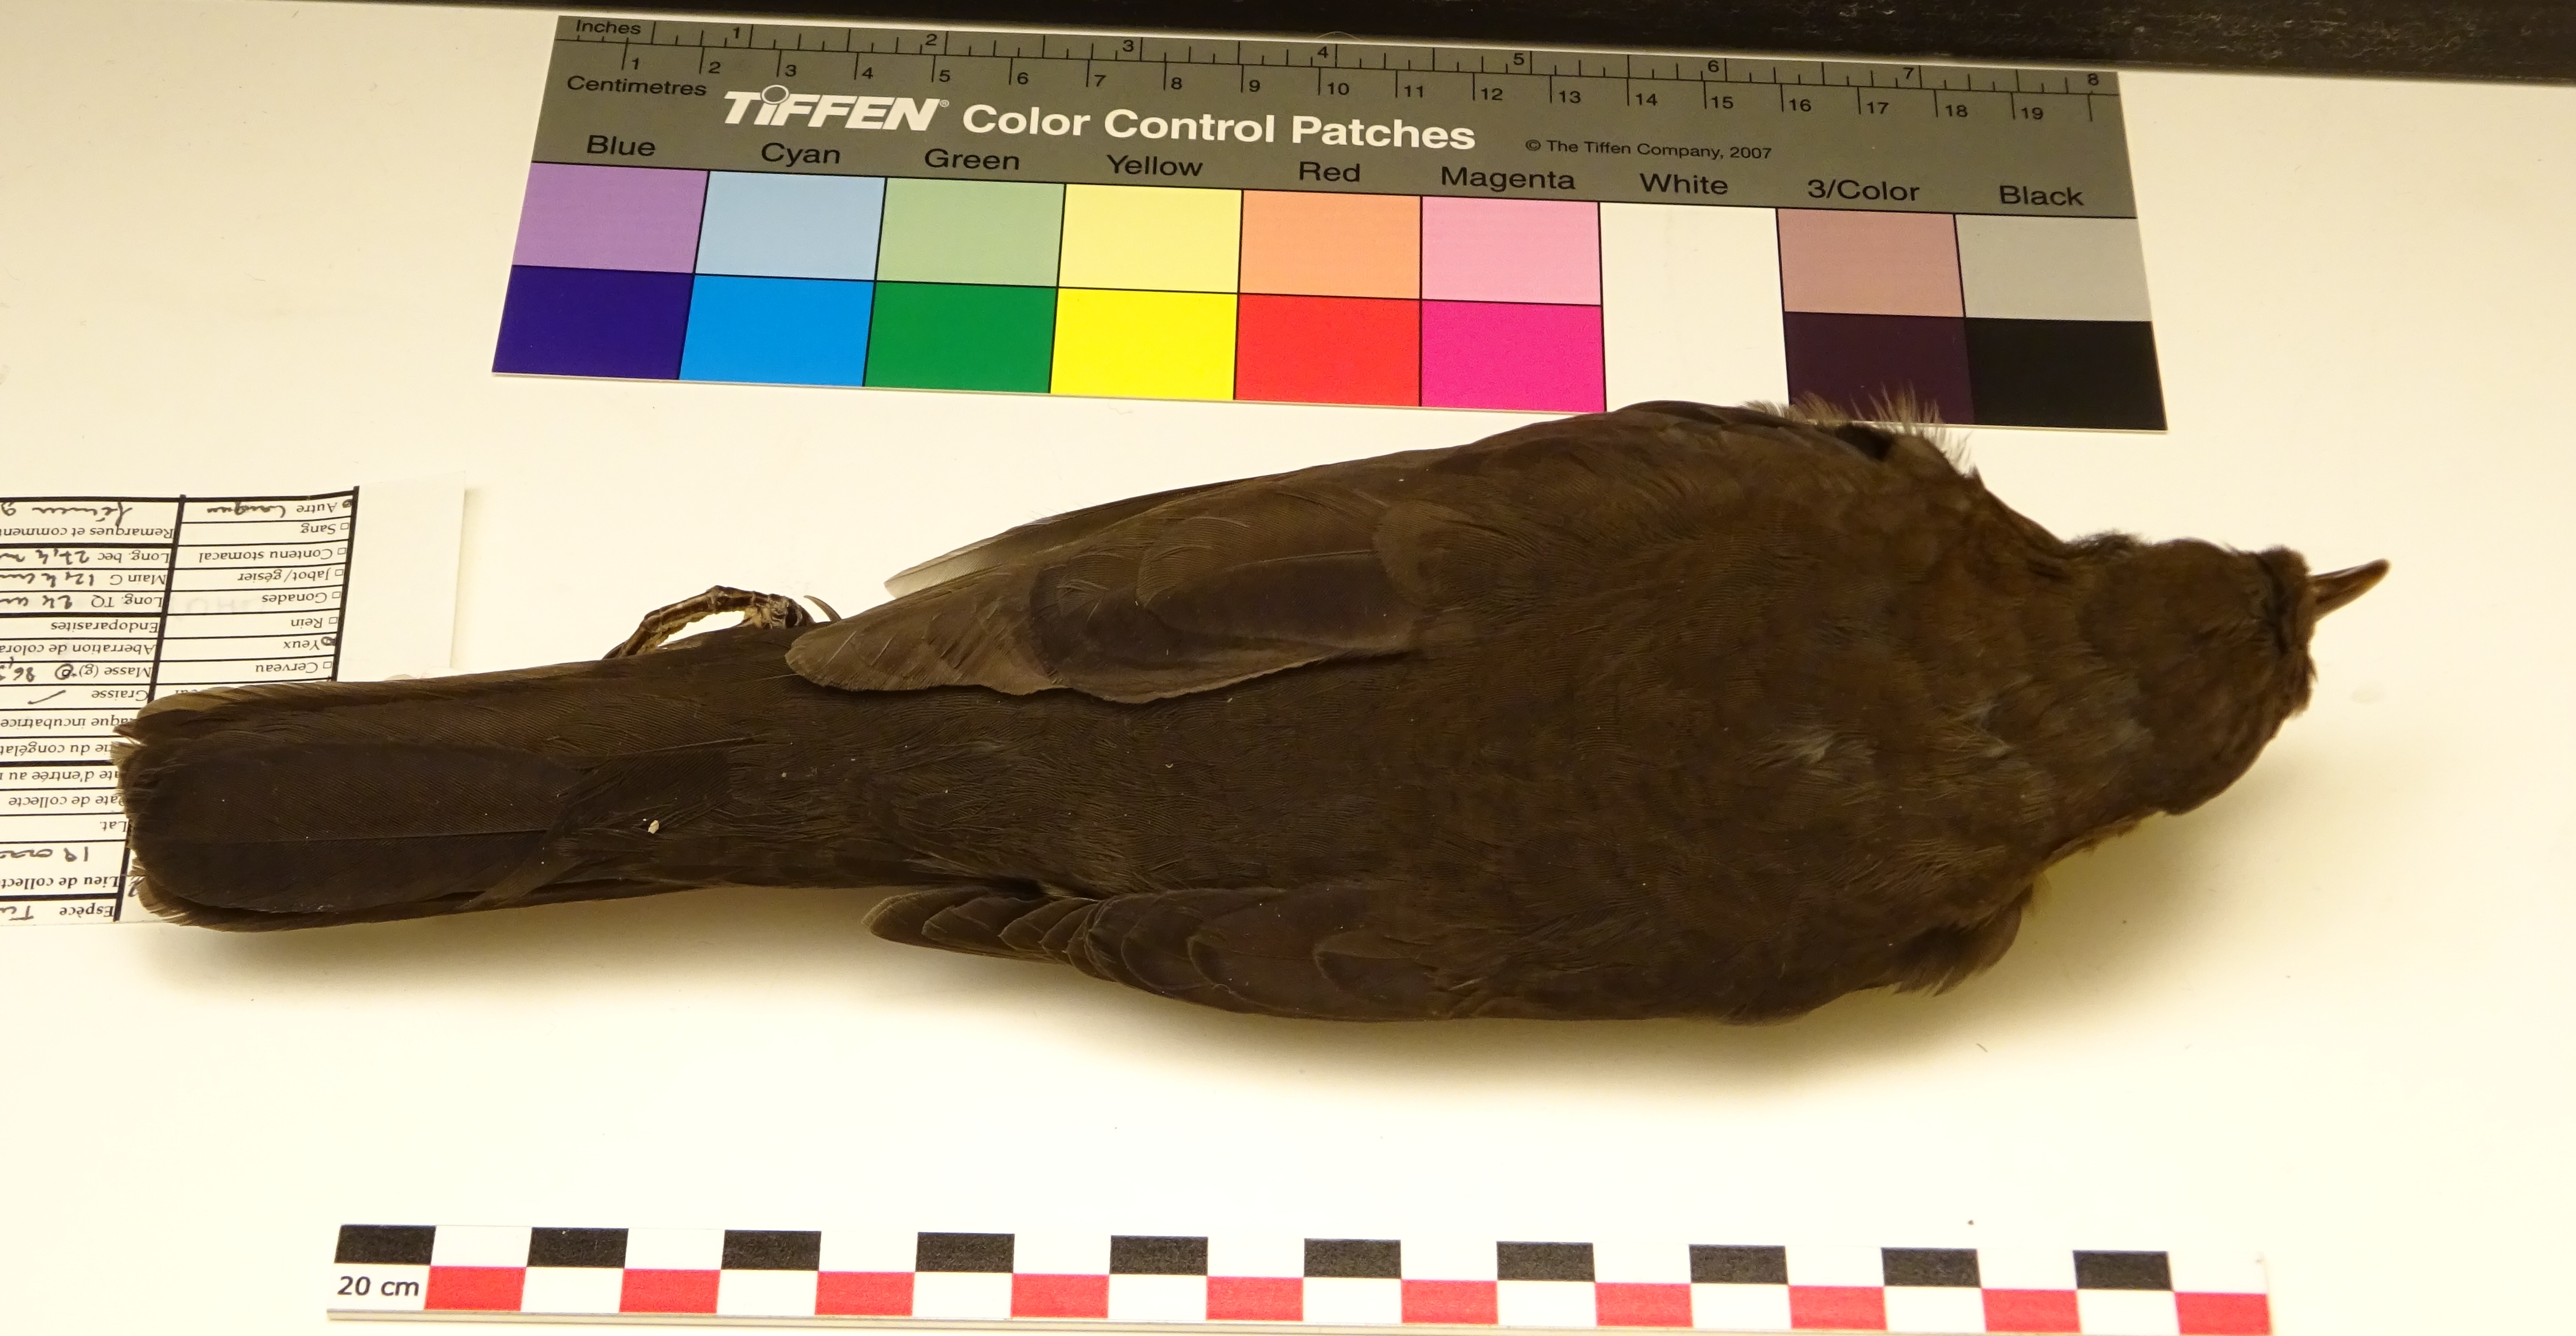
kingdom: Animalia
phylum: Chordata
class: Aves
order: Passeriformes
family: Turdidae
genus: Turdus
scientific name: Turdus merula
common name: Common blackbird
